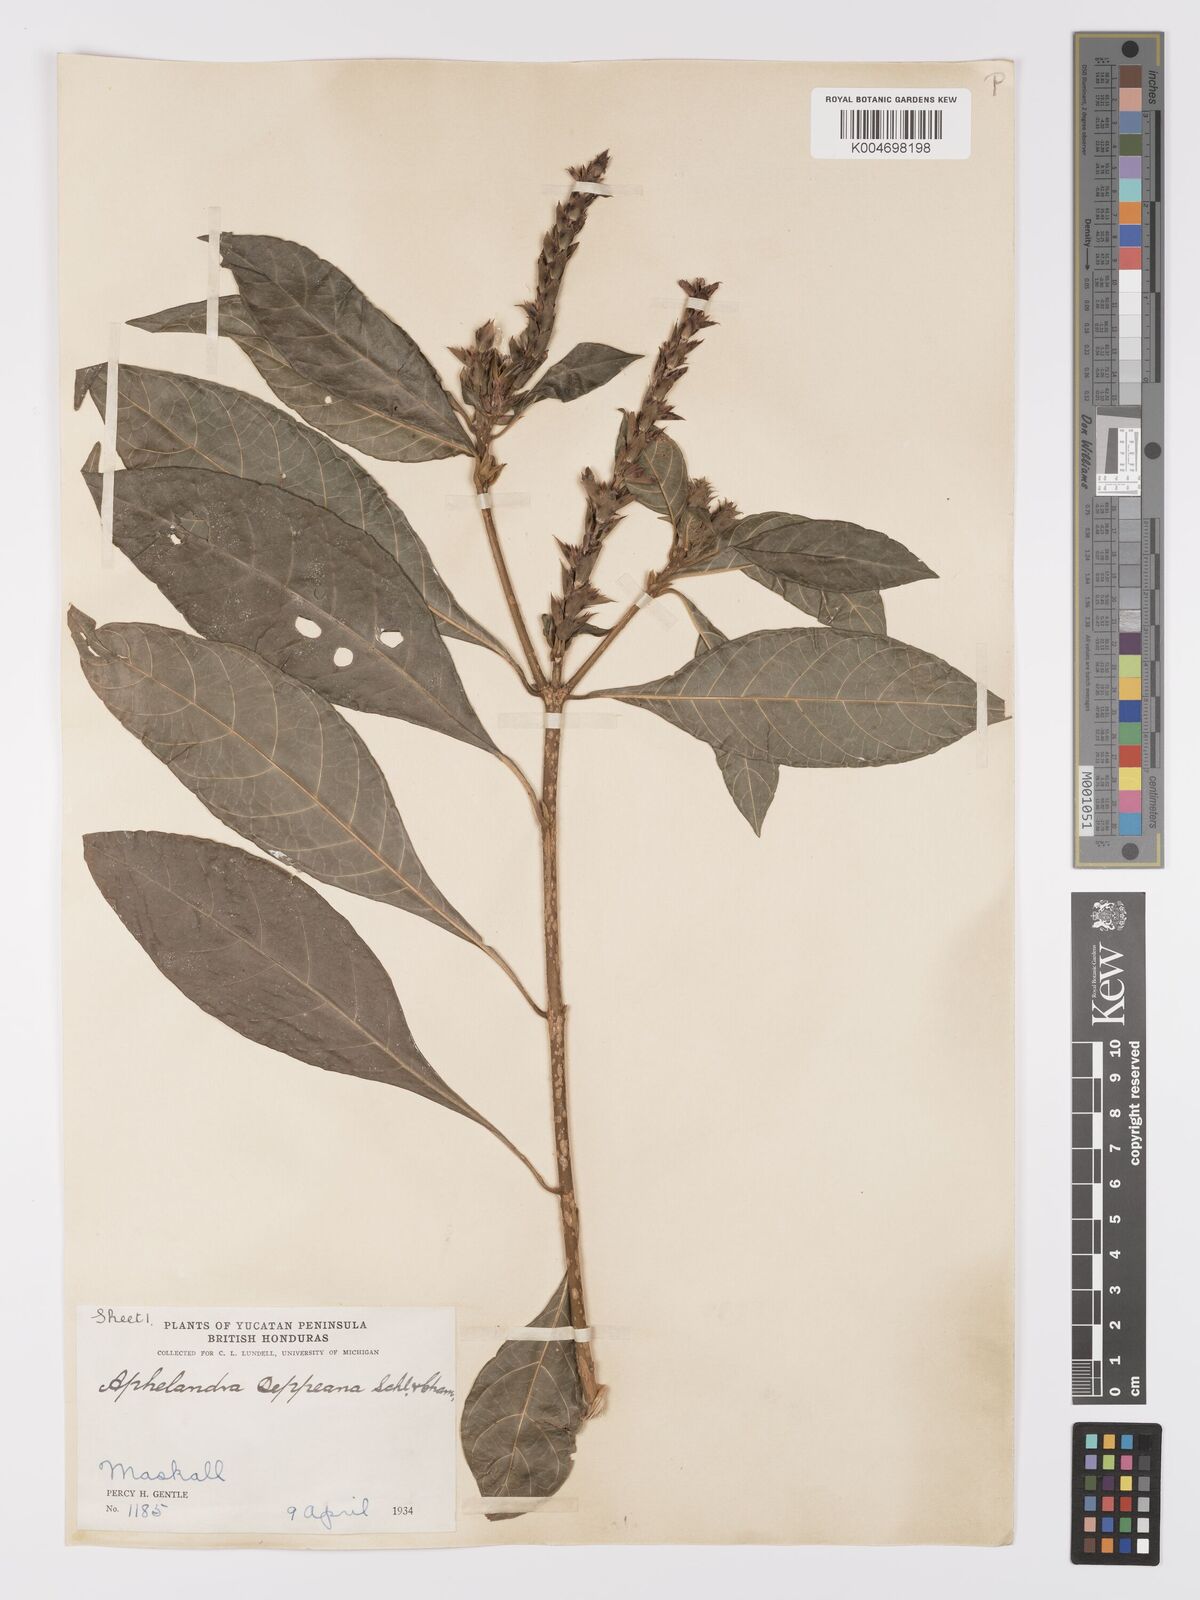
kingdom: Plantae
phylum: Tracheophyta
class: Magnoliopsida
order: Lamiales
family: Acanthaceae
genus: Aphelandra
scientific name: Aphelandra scabra
